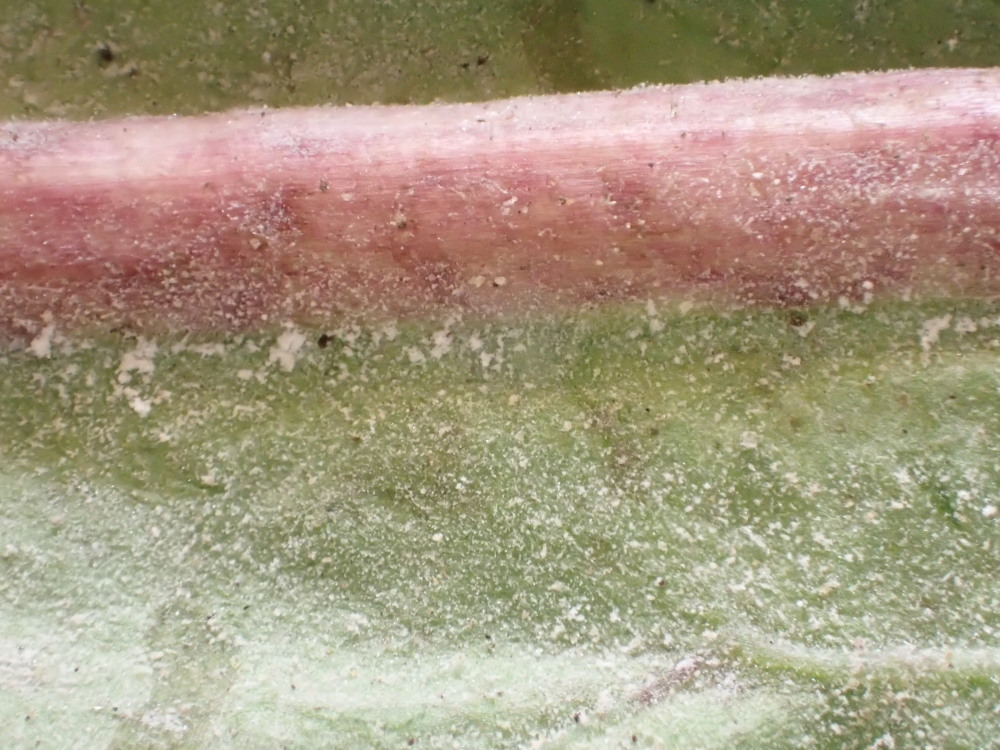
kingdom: Fungi
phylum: Ascomycota
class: Leotiomycetes
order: Helotiales
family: Erysiphaceae
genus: Podosphaera
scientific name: Podosphaera erigerontis-canadensis
